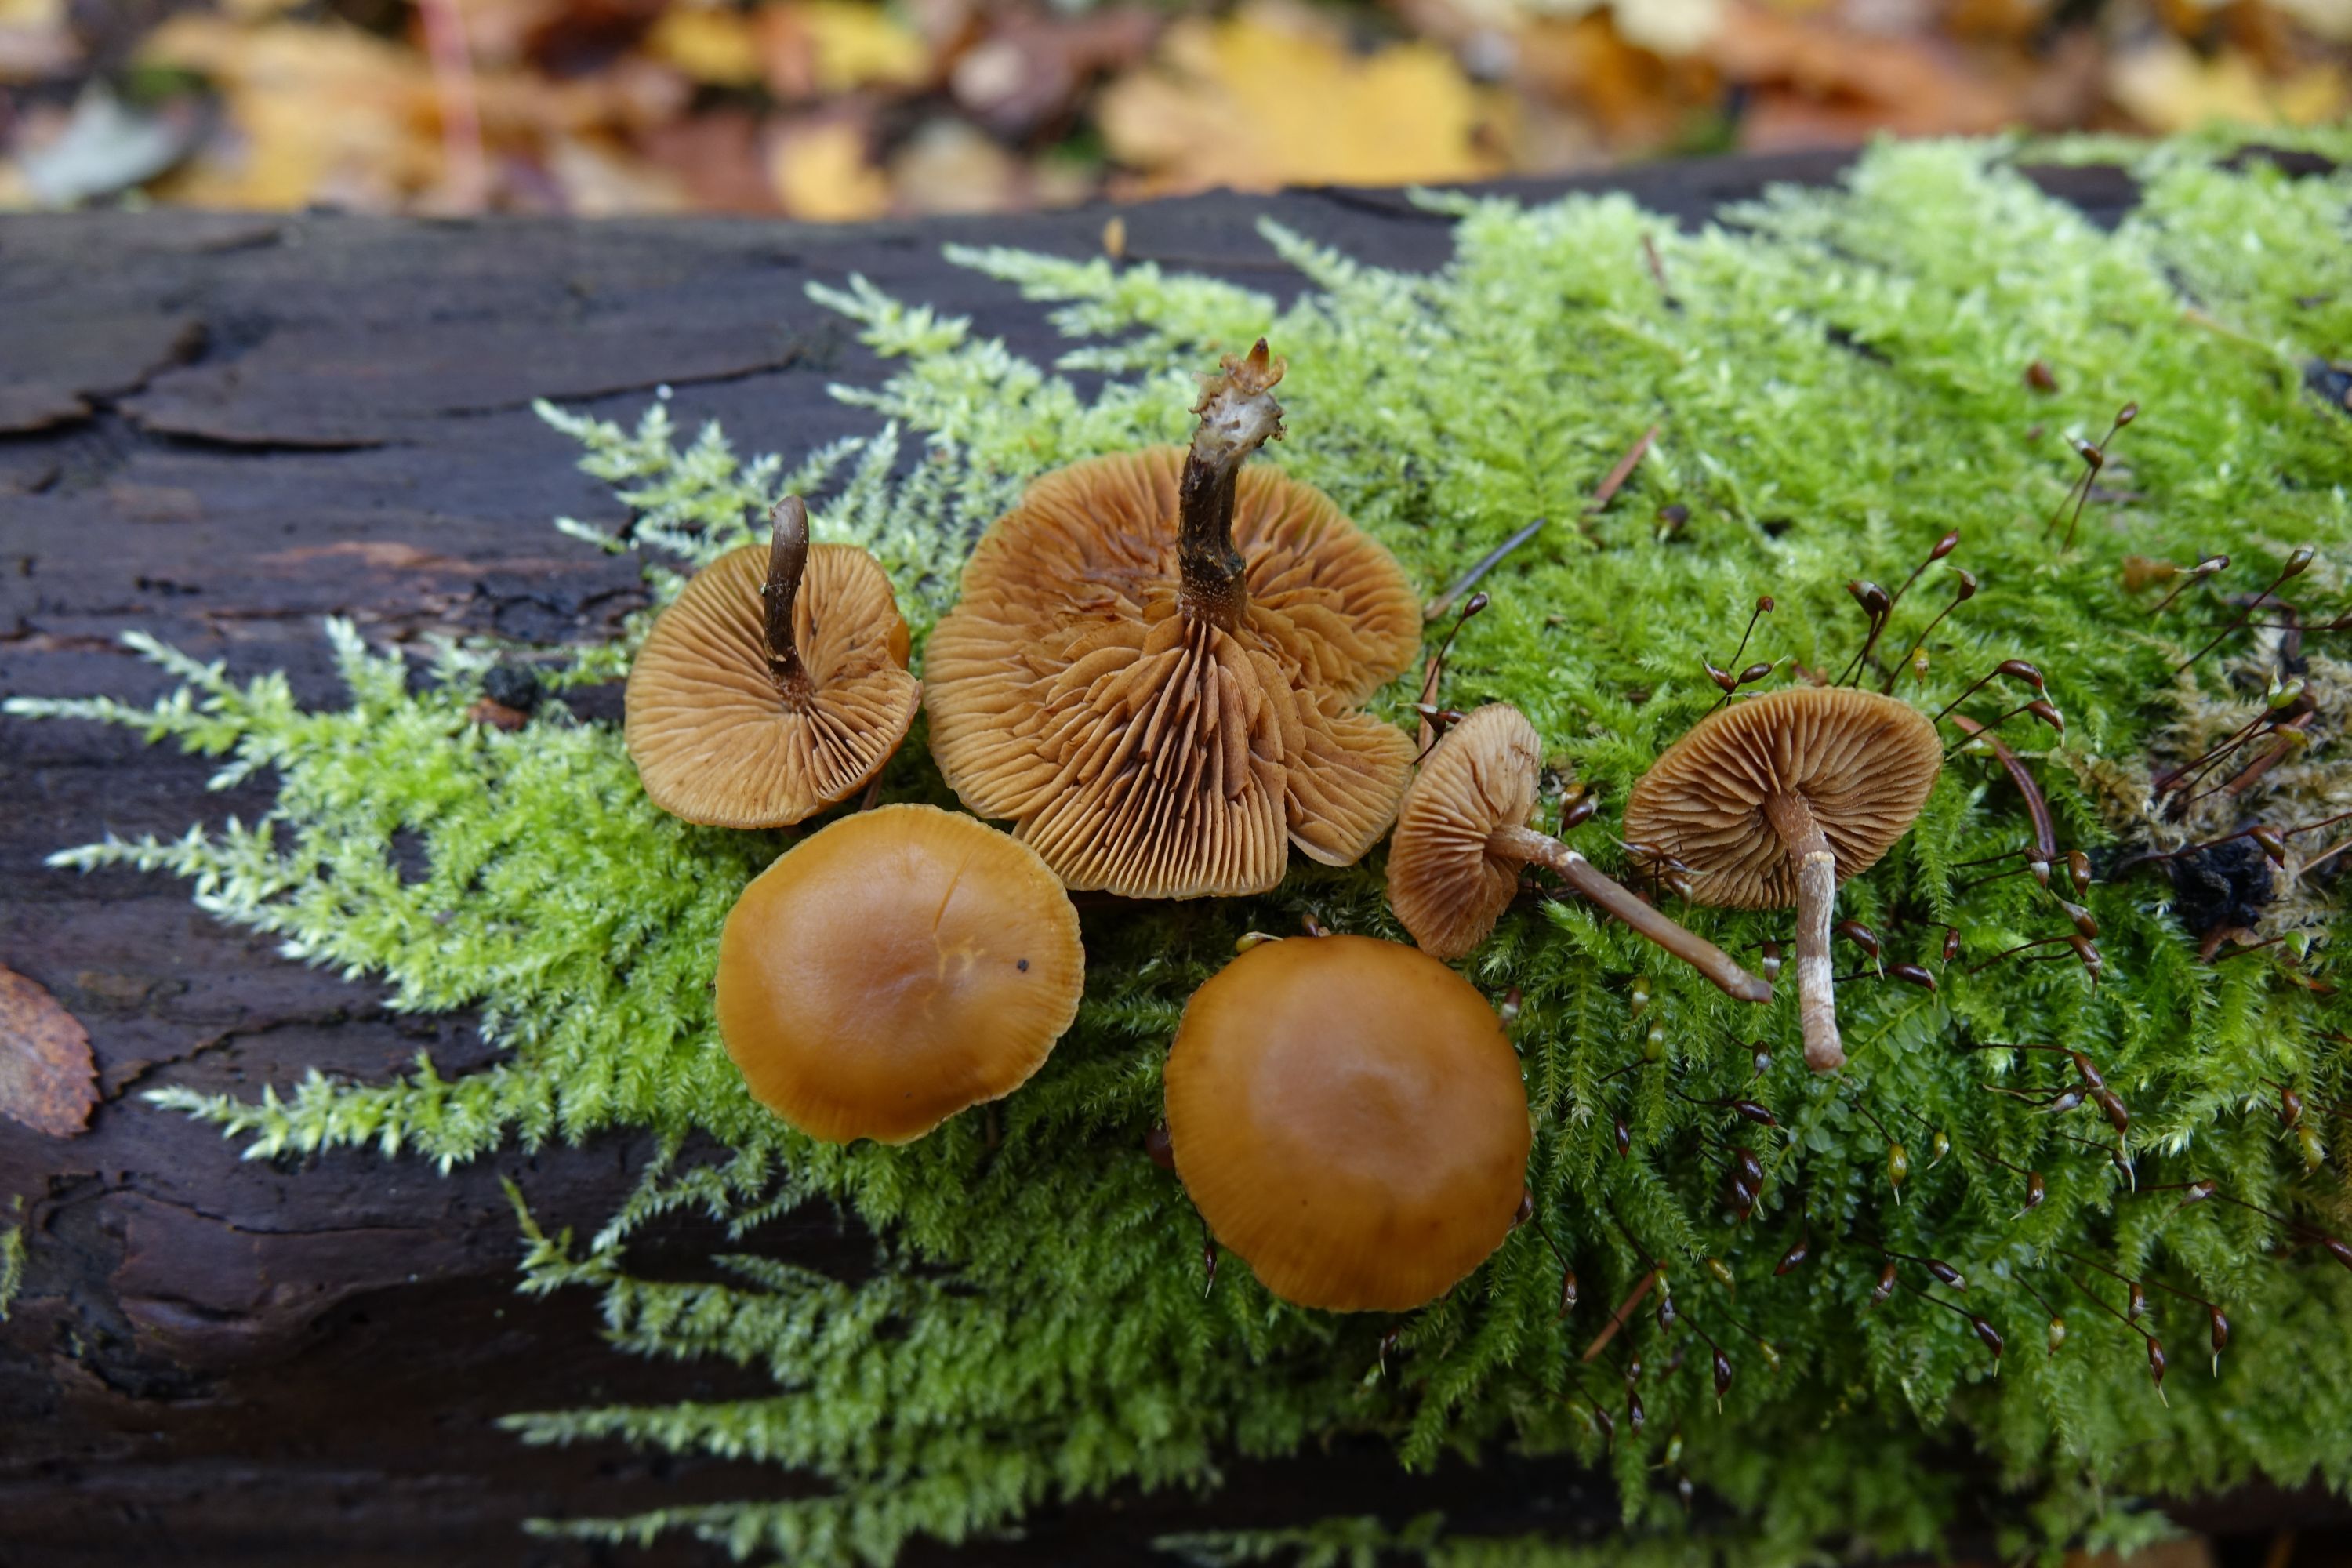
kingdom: Fungi
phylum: Basidiomycota
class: Agaricomycetes
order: Agaricales
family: Hymenogastraceae
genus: Galerina
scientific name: Galerina marginata
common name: Funeral bell
